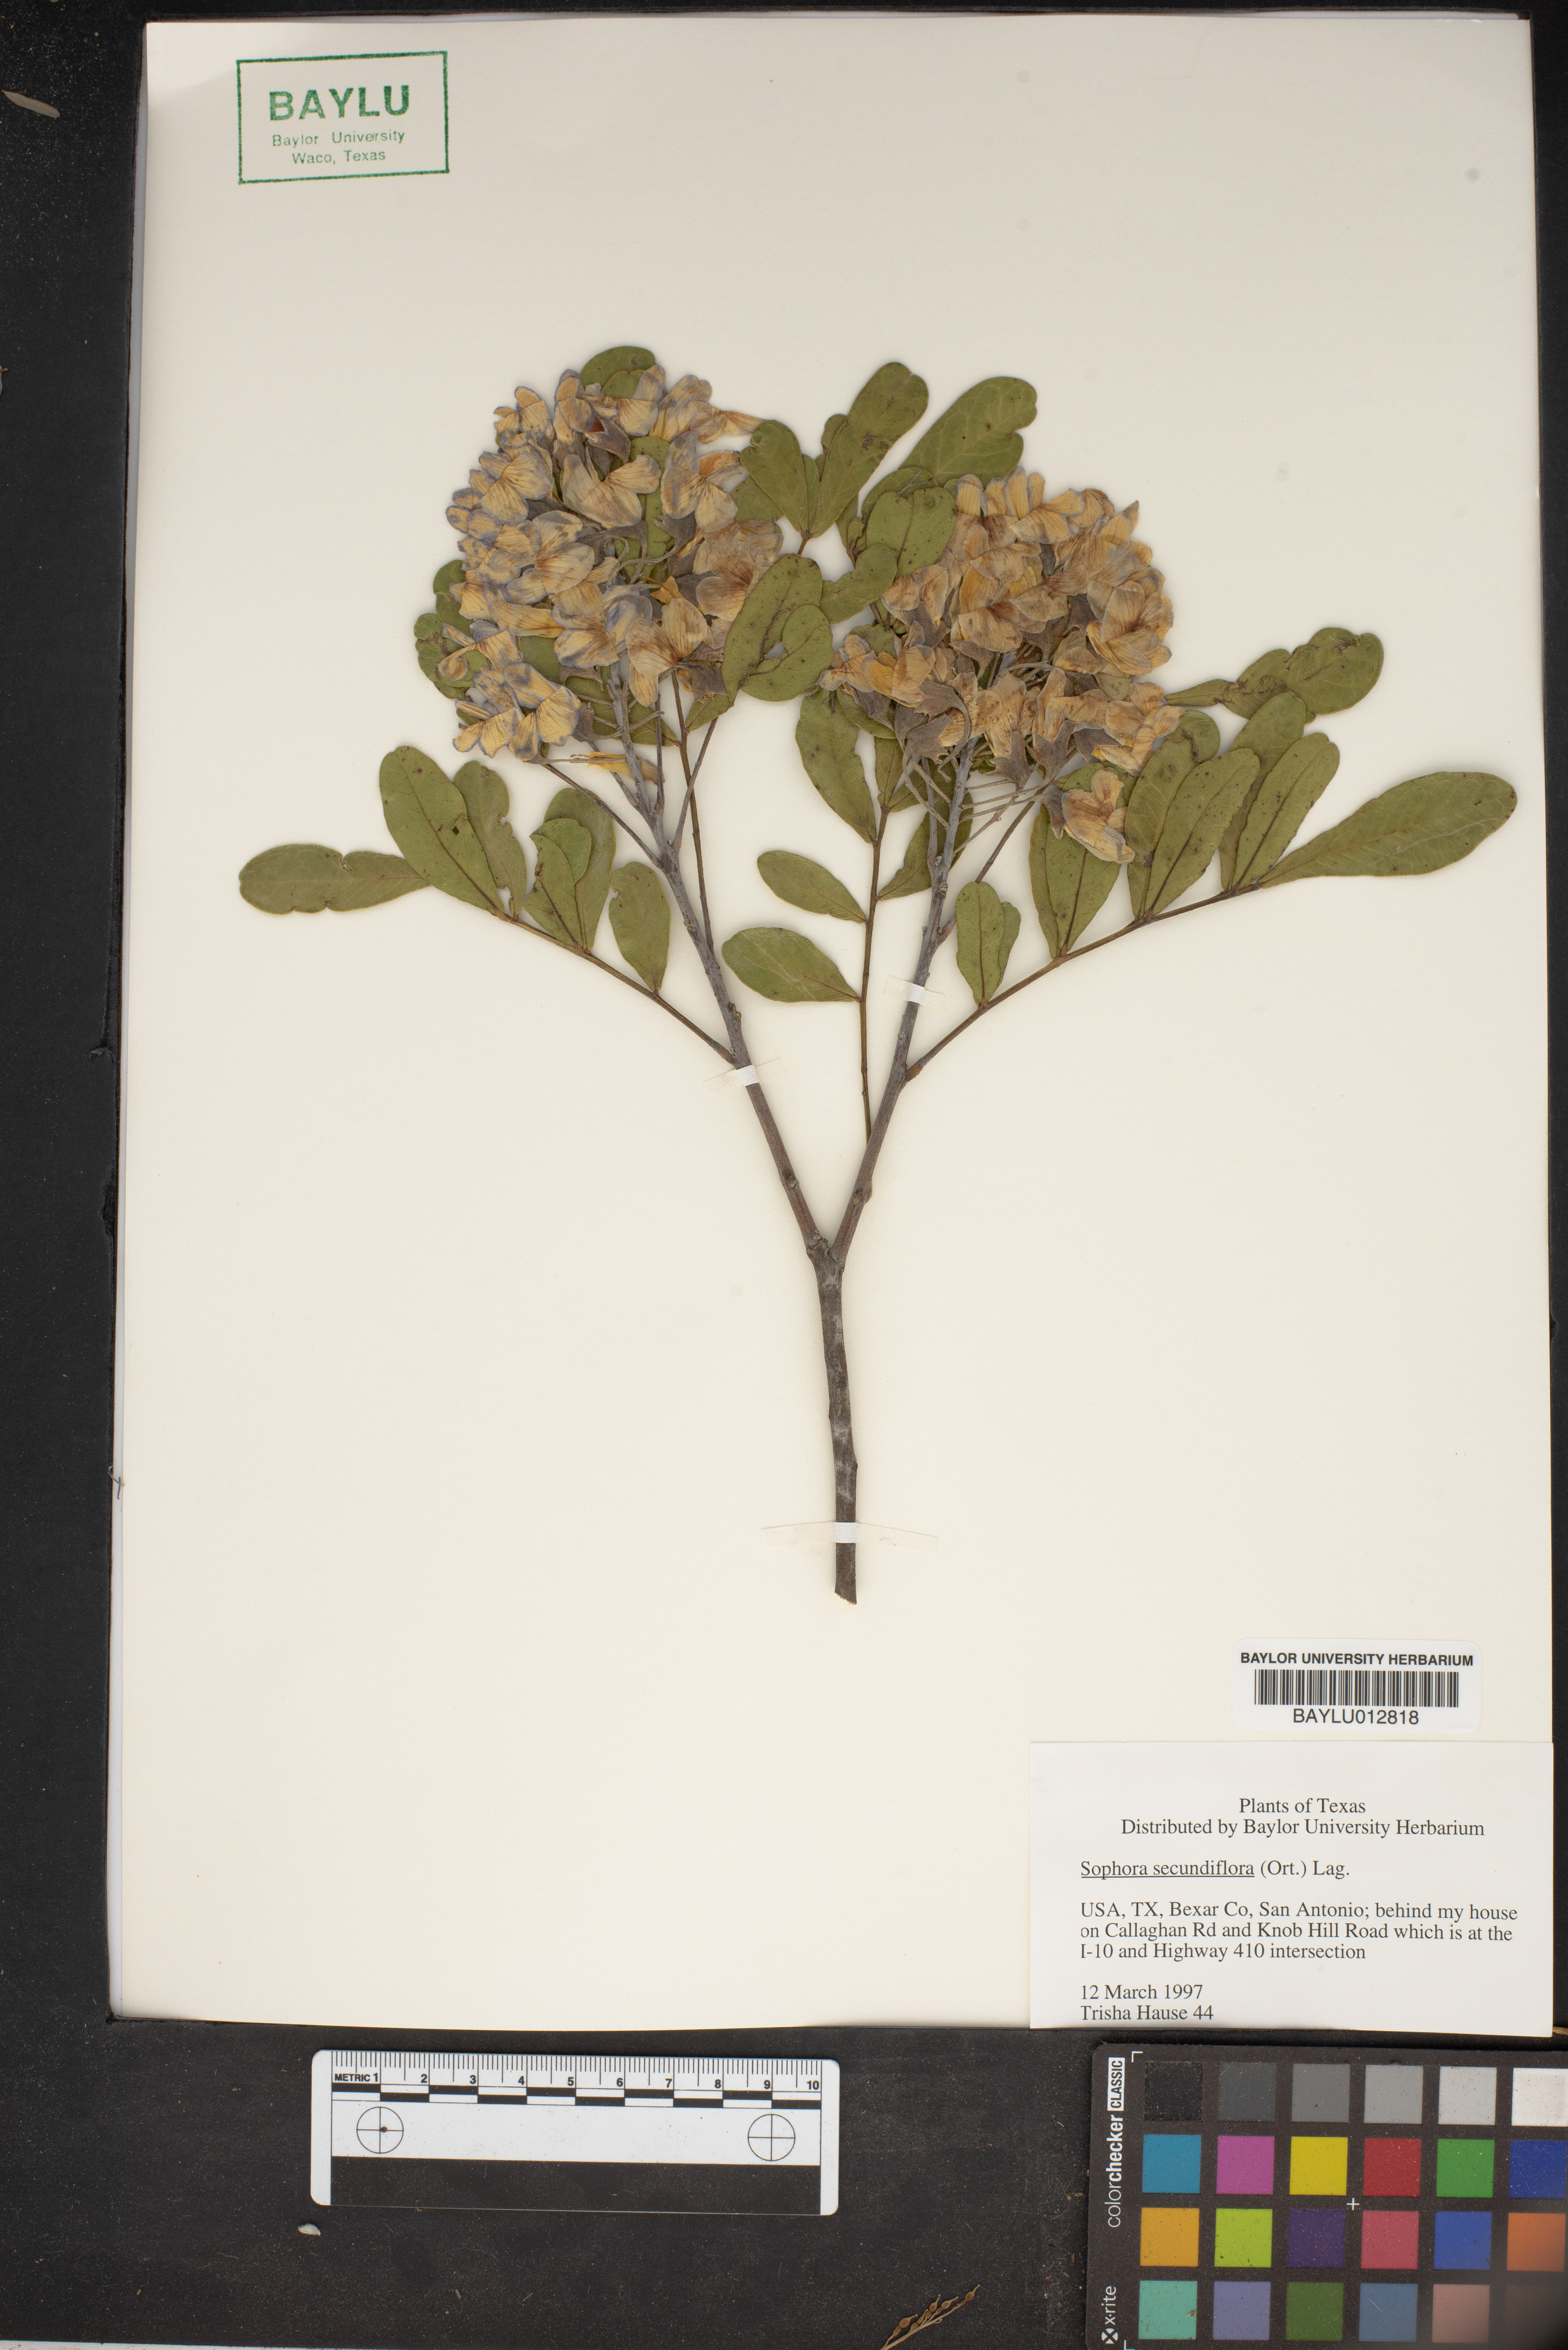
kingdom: Plantae
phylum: Tracheophyta
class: Magnoliopsida
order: Fabales
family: Fabaceae
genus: Dermatophyllum
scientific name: Dermatophyllum secundiflorum
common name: Texas-mountain-laurel
